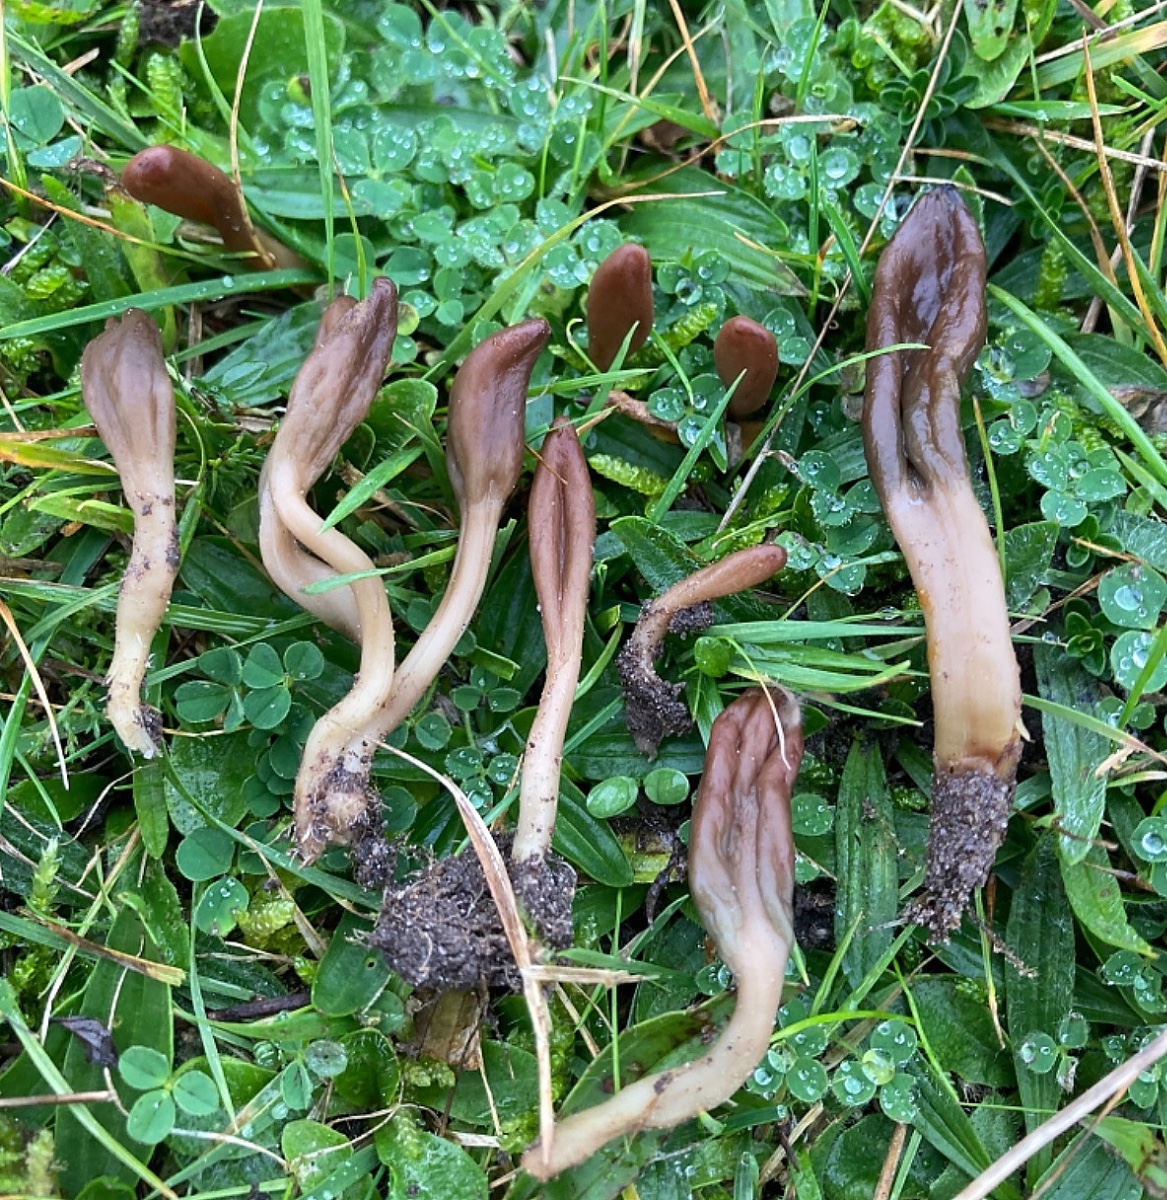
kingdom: Fungi
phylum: Ascomycota
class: Leotiomycetes
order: Leotiales
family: Leotiaceae
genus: Microglossum
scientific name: Microglossum olivaceum
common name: olivenbrun farvetunge
